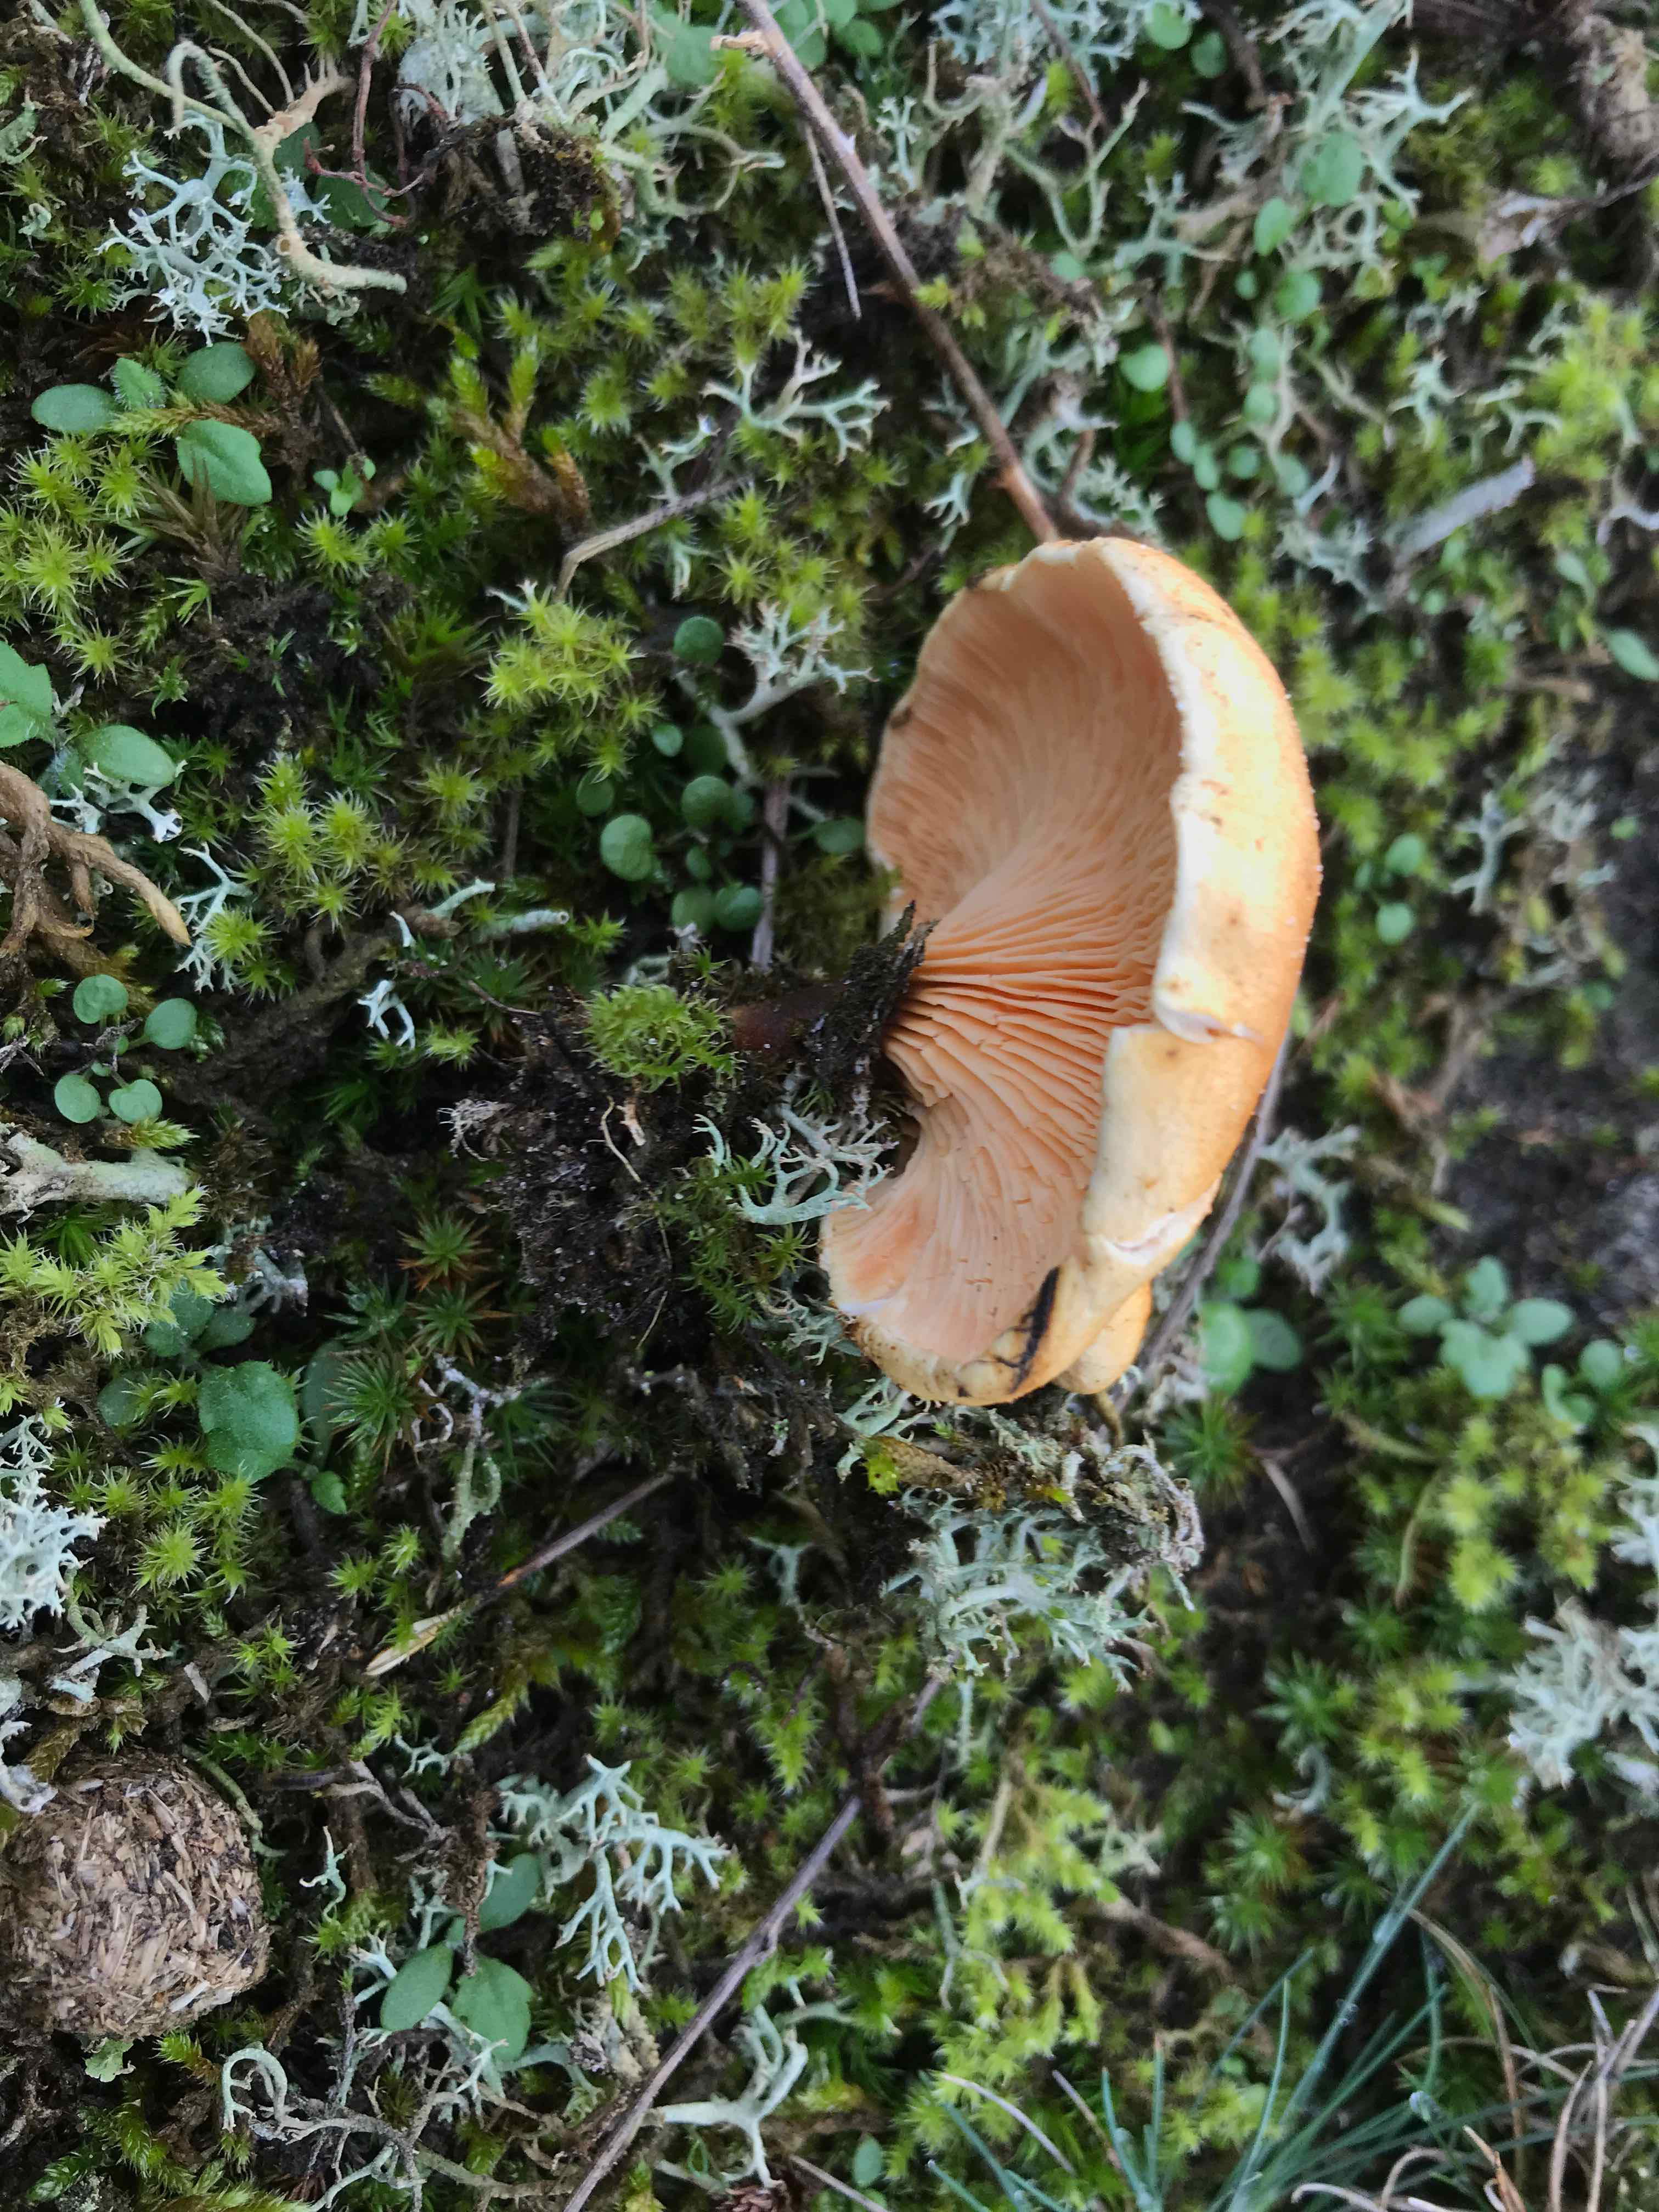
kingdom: Fungi
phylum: Basidiomycota
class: Agaricomycetes
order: Boletales
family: Hygrophoropsidaceae
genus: Hygrophoropsis
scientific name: Hygrophoropsis aurantiaca
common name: almindelig orangekantarel
